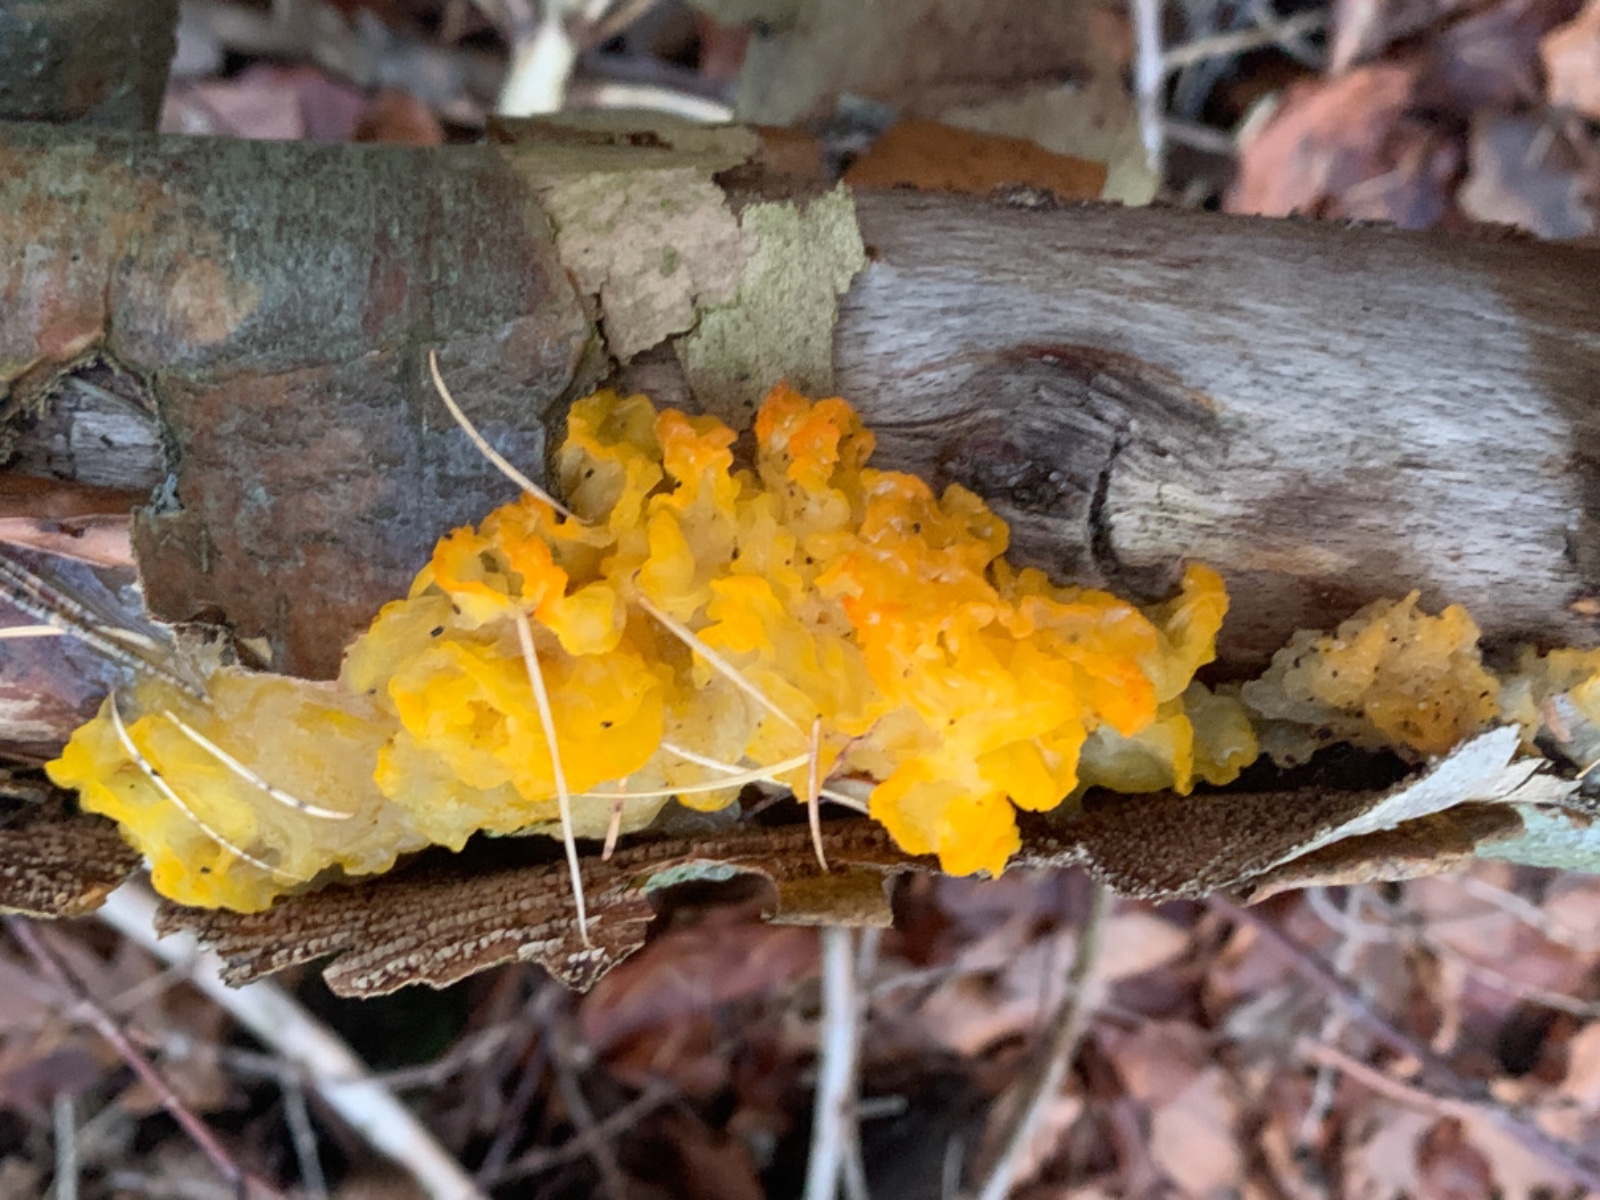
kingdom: Fungi
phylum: Basidiomycota
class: Tremellomycetes
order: Tremellales
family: Tremellaceae
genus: Tremella
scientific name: Tremella mesenterica
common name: gul bævresvamp
